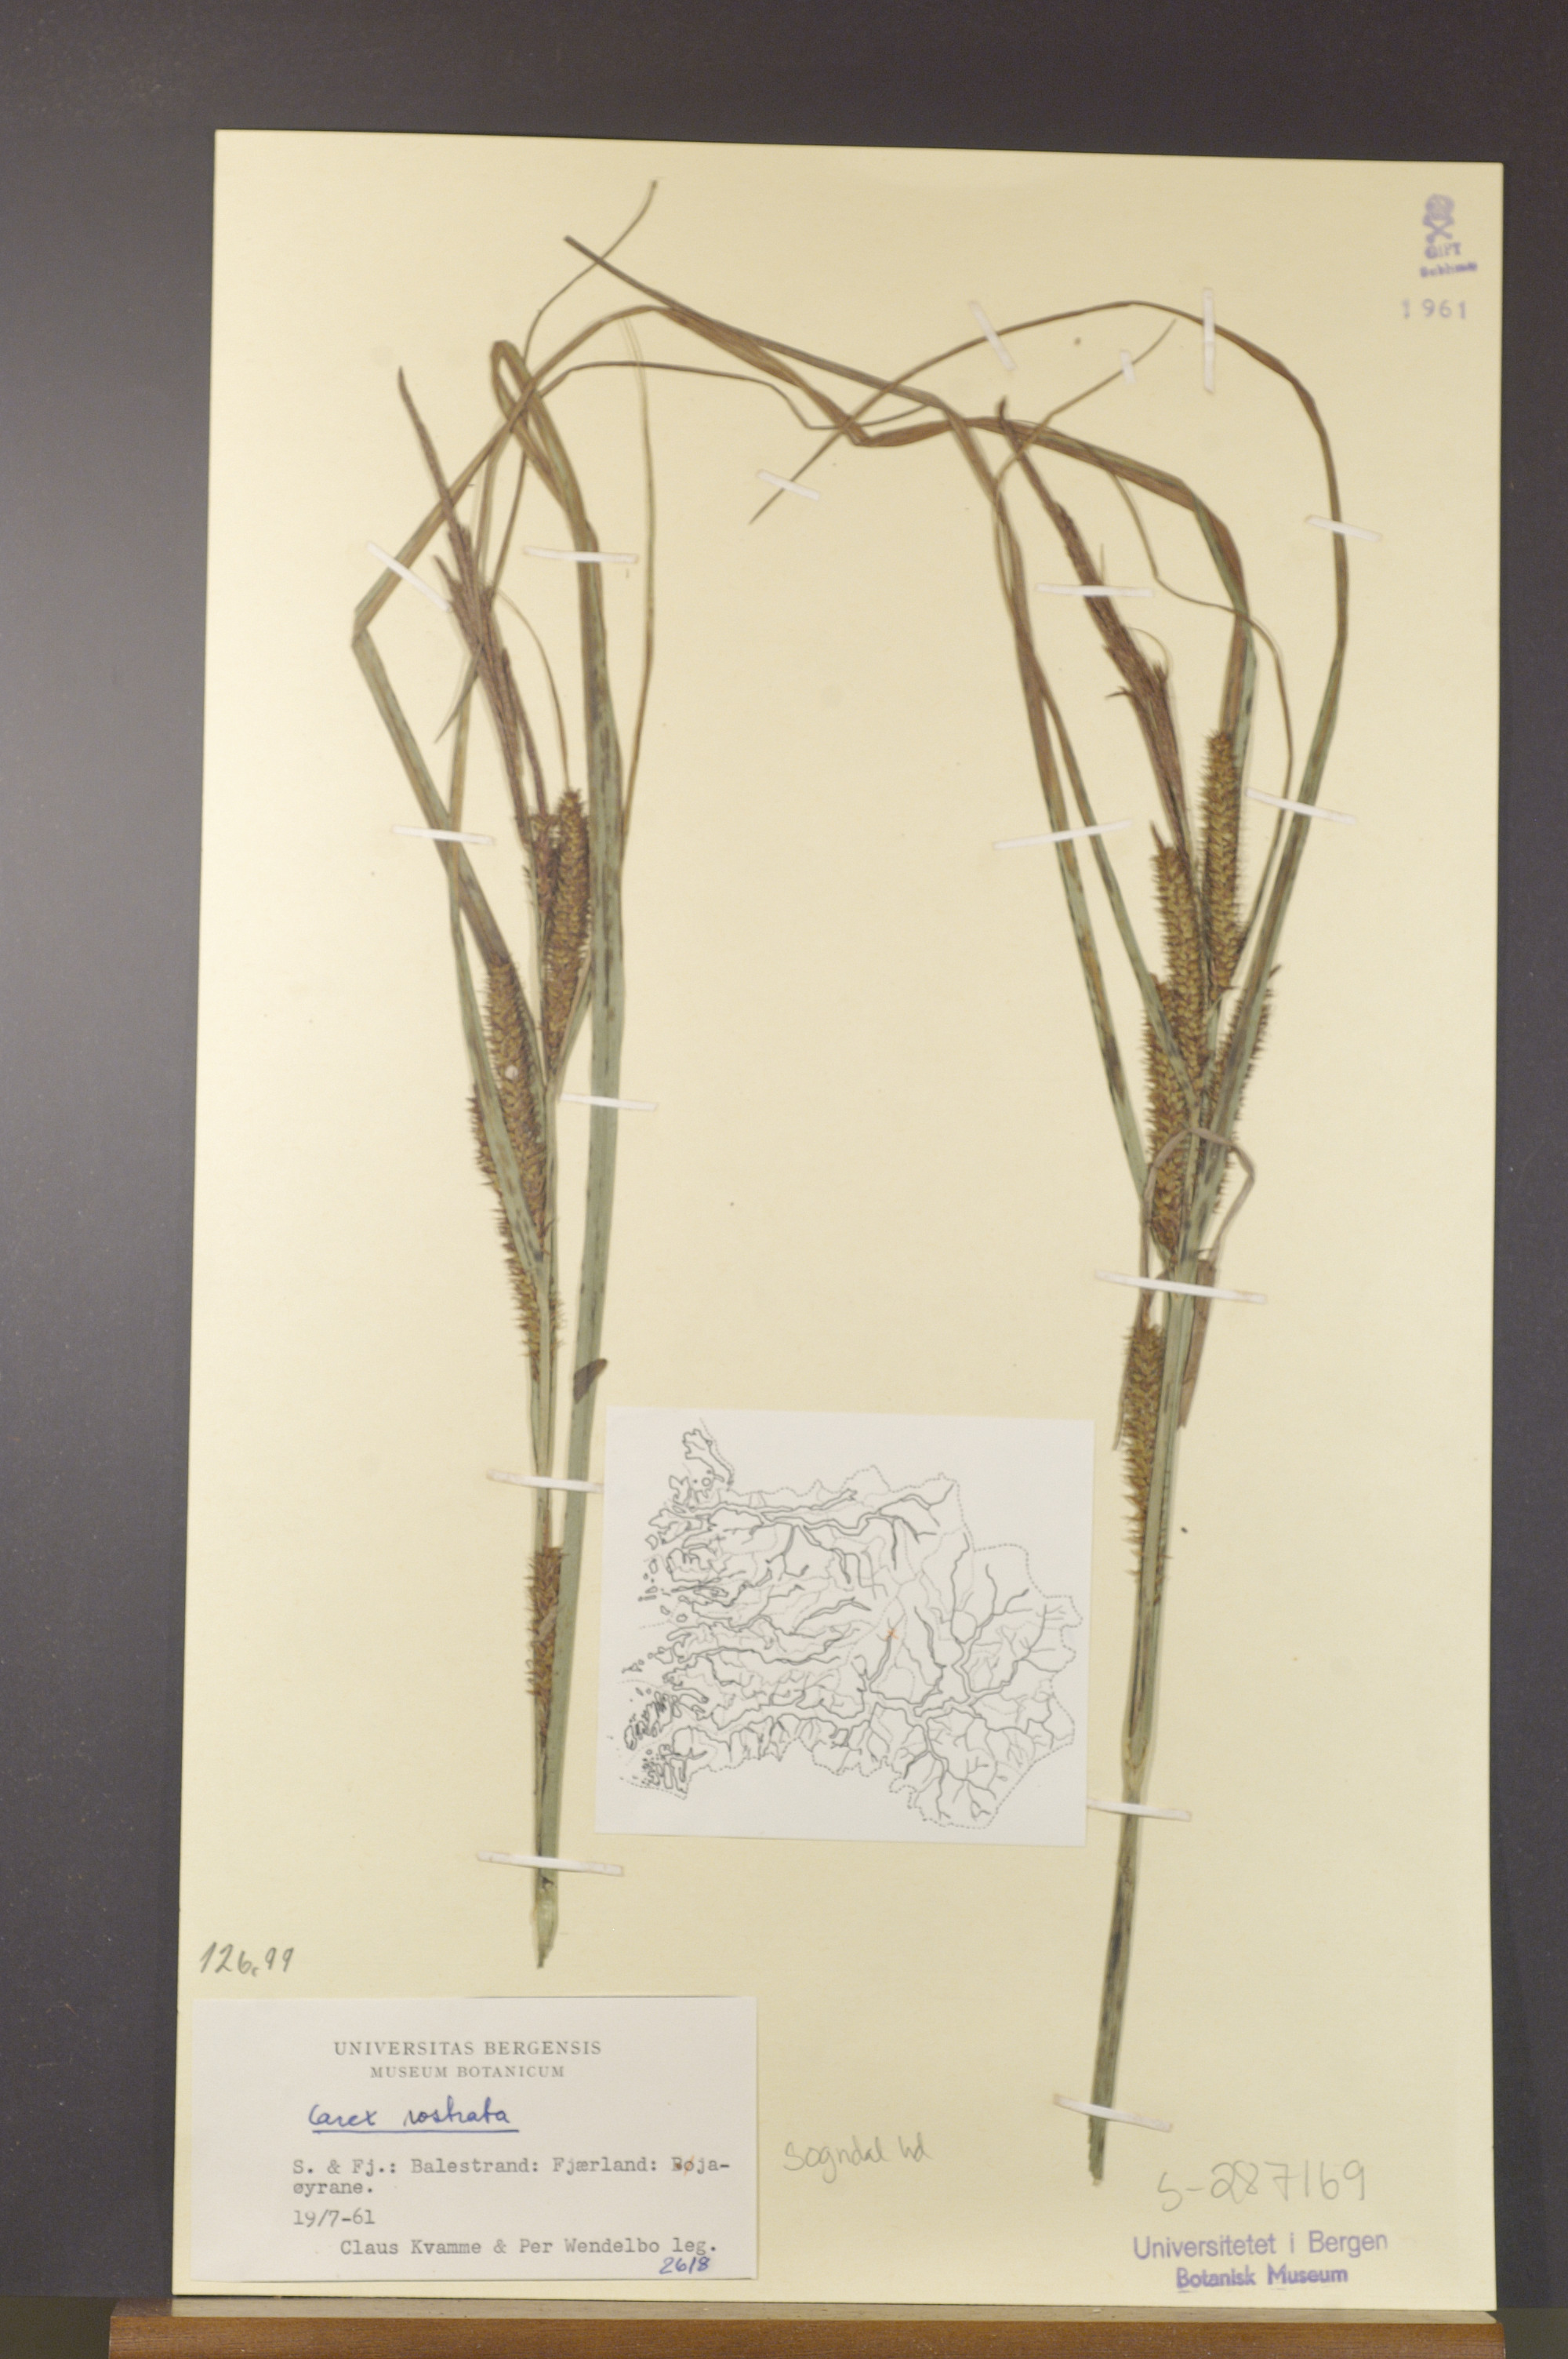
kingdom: Plantae
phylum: Tracheophyta
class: Liliopsida
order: Poales
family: Cyperaceae
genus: Carex
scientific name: Carex rostrata
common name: Bottle sedge
